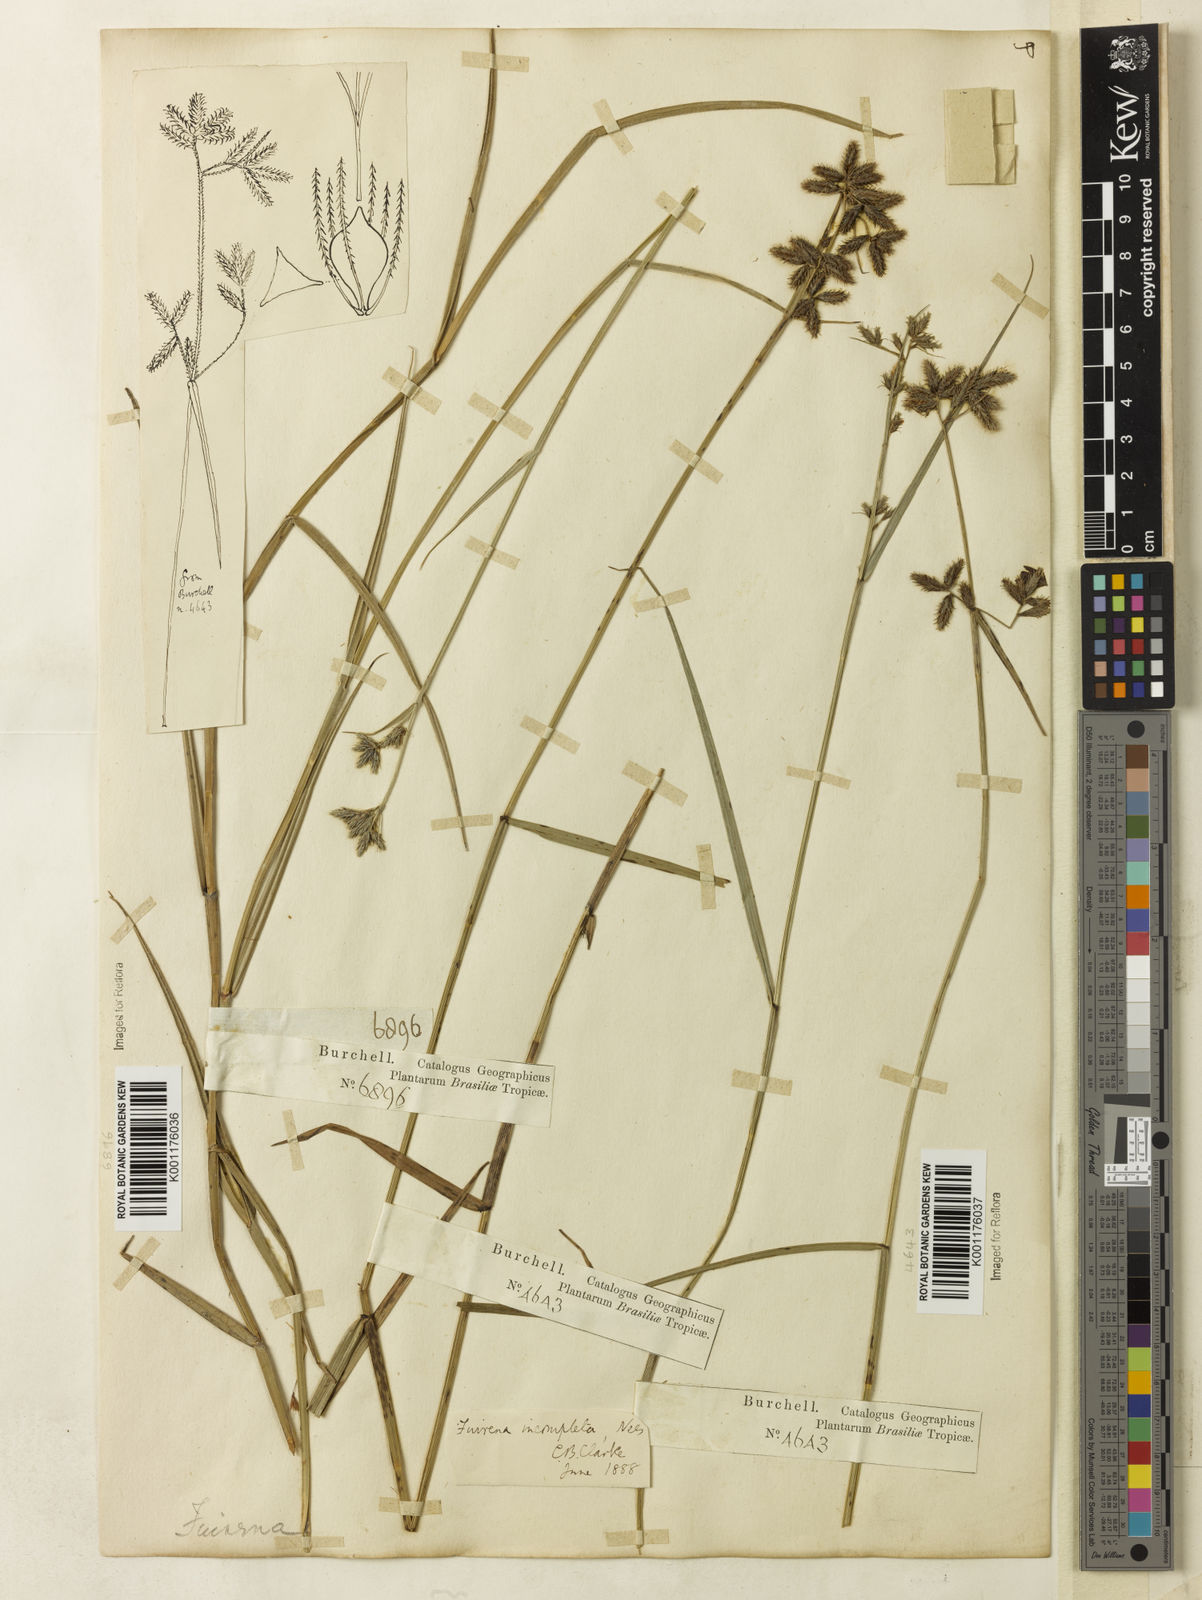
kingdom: Plantae
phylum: Tracheophyta
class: Liliopsida
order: Poales
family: Cyperaceae
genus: Fuirena
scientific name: Fuirena incompleta
